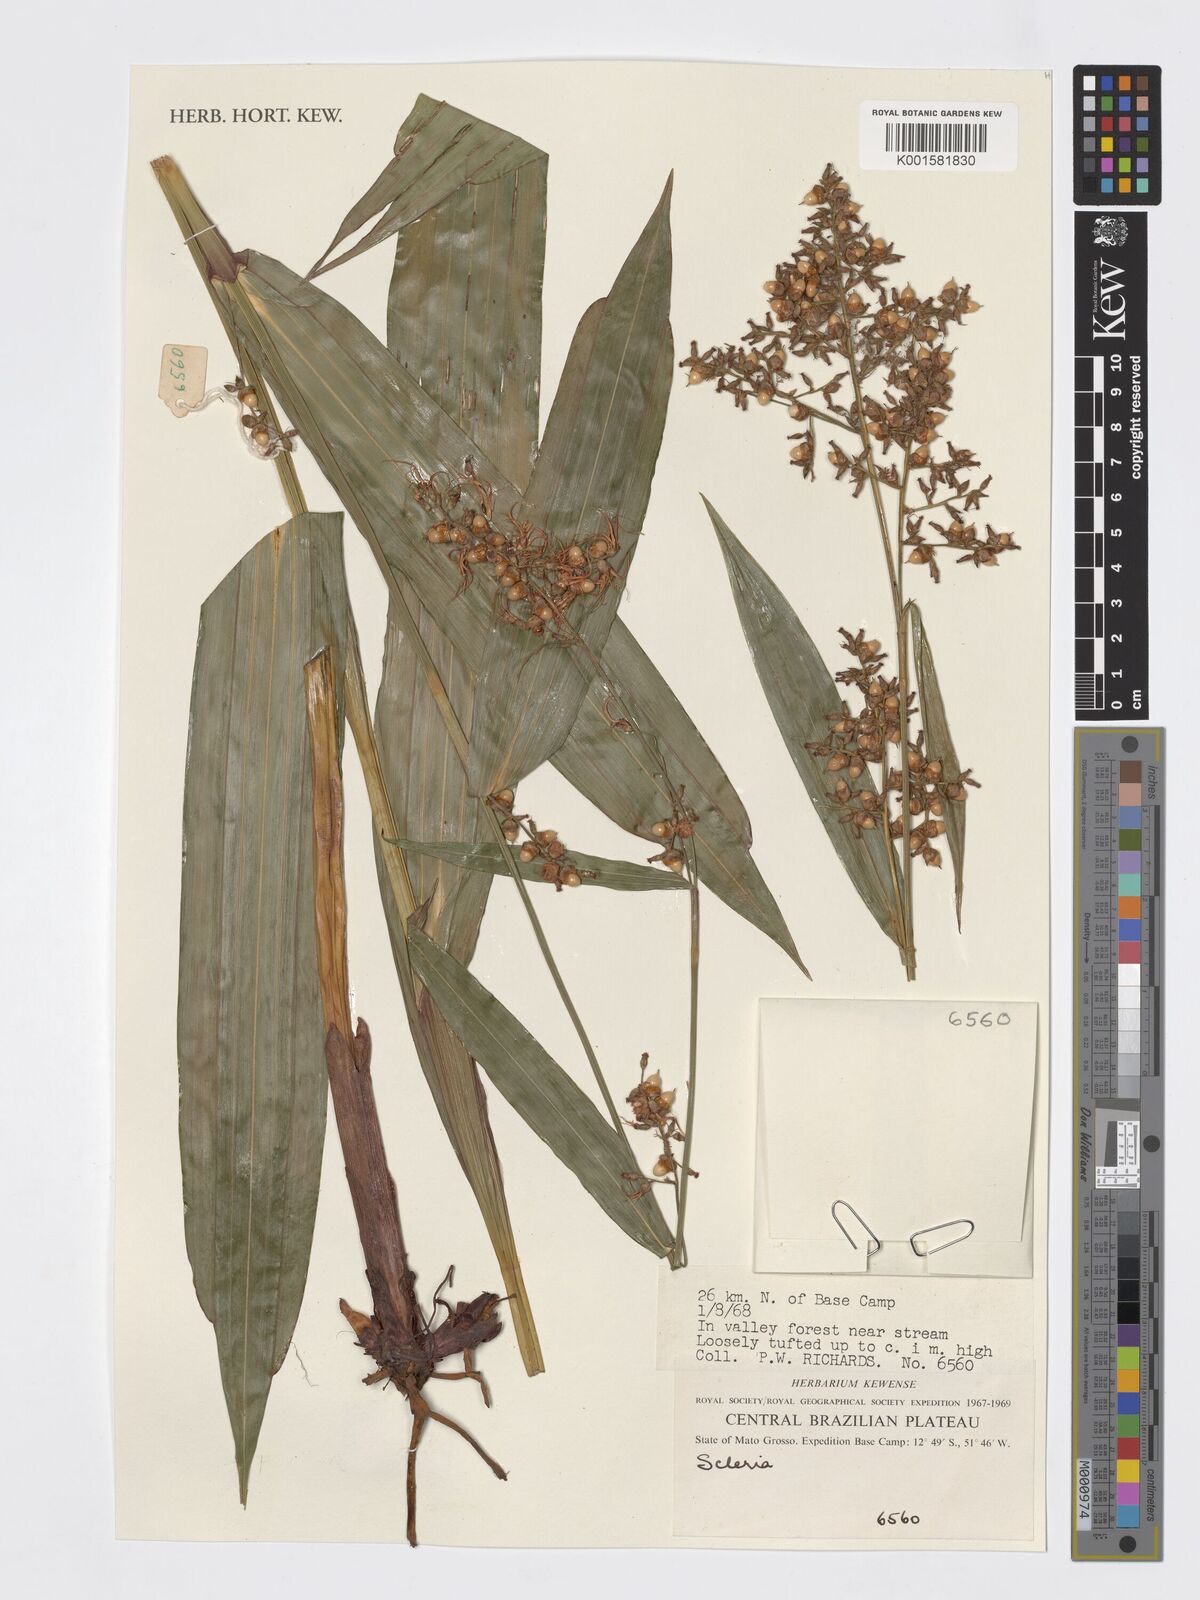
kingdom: Plantae
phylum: Tracheophyta
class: Liliopsida
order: Poales
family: Cyperaceae
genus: Scleria
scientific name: Scleria
